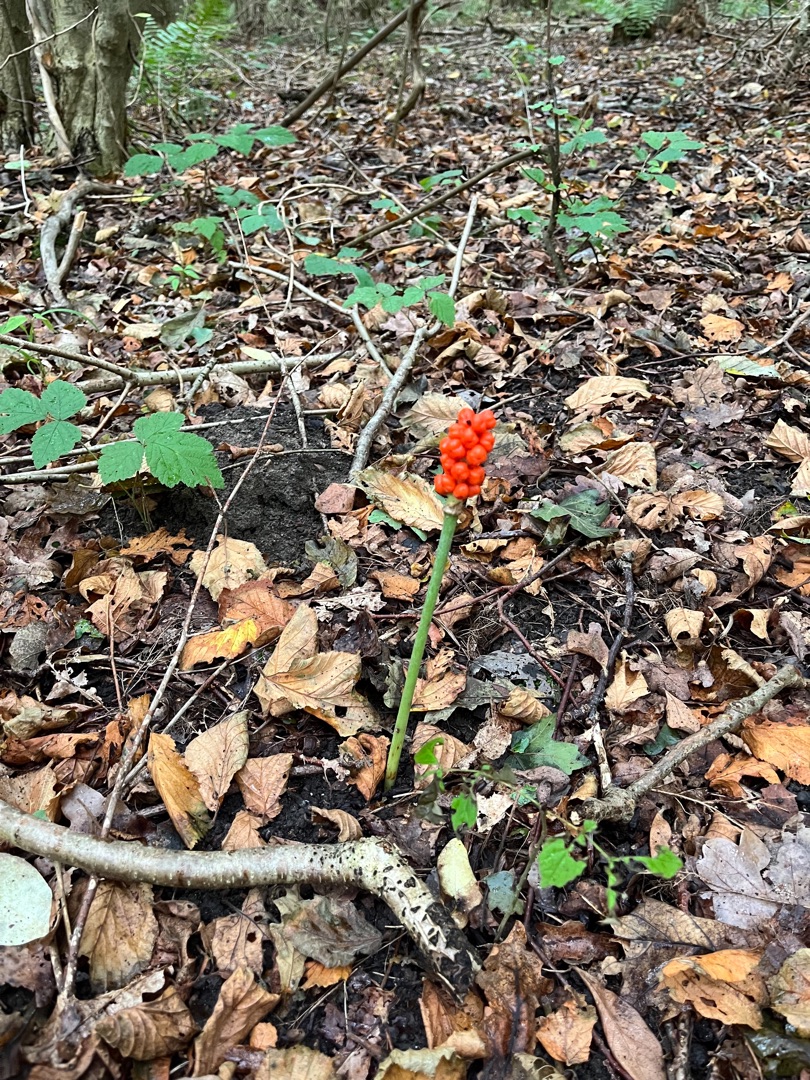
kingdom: Plantae
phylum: Tracheophyta
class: Liliopsida
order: Alismatales
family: Araceae
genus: Arum
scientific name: Arum
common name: Arumslægten
